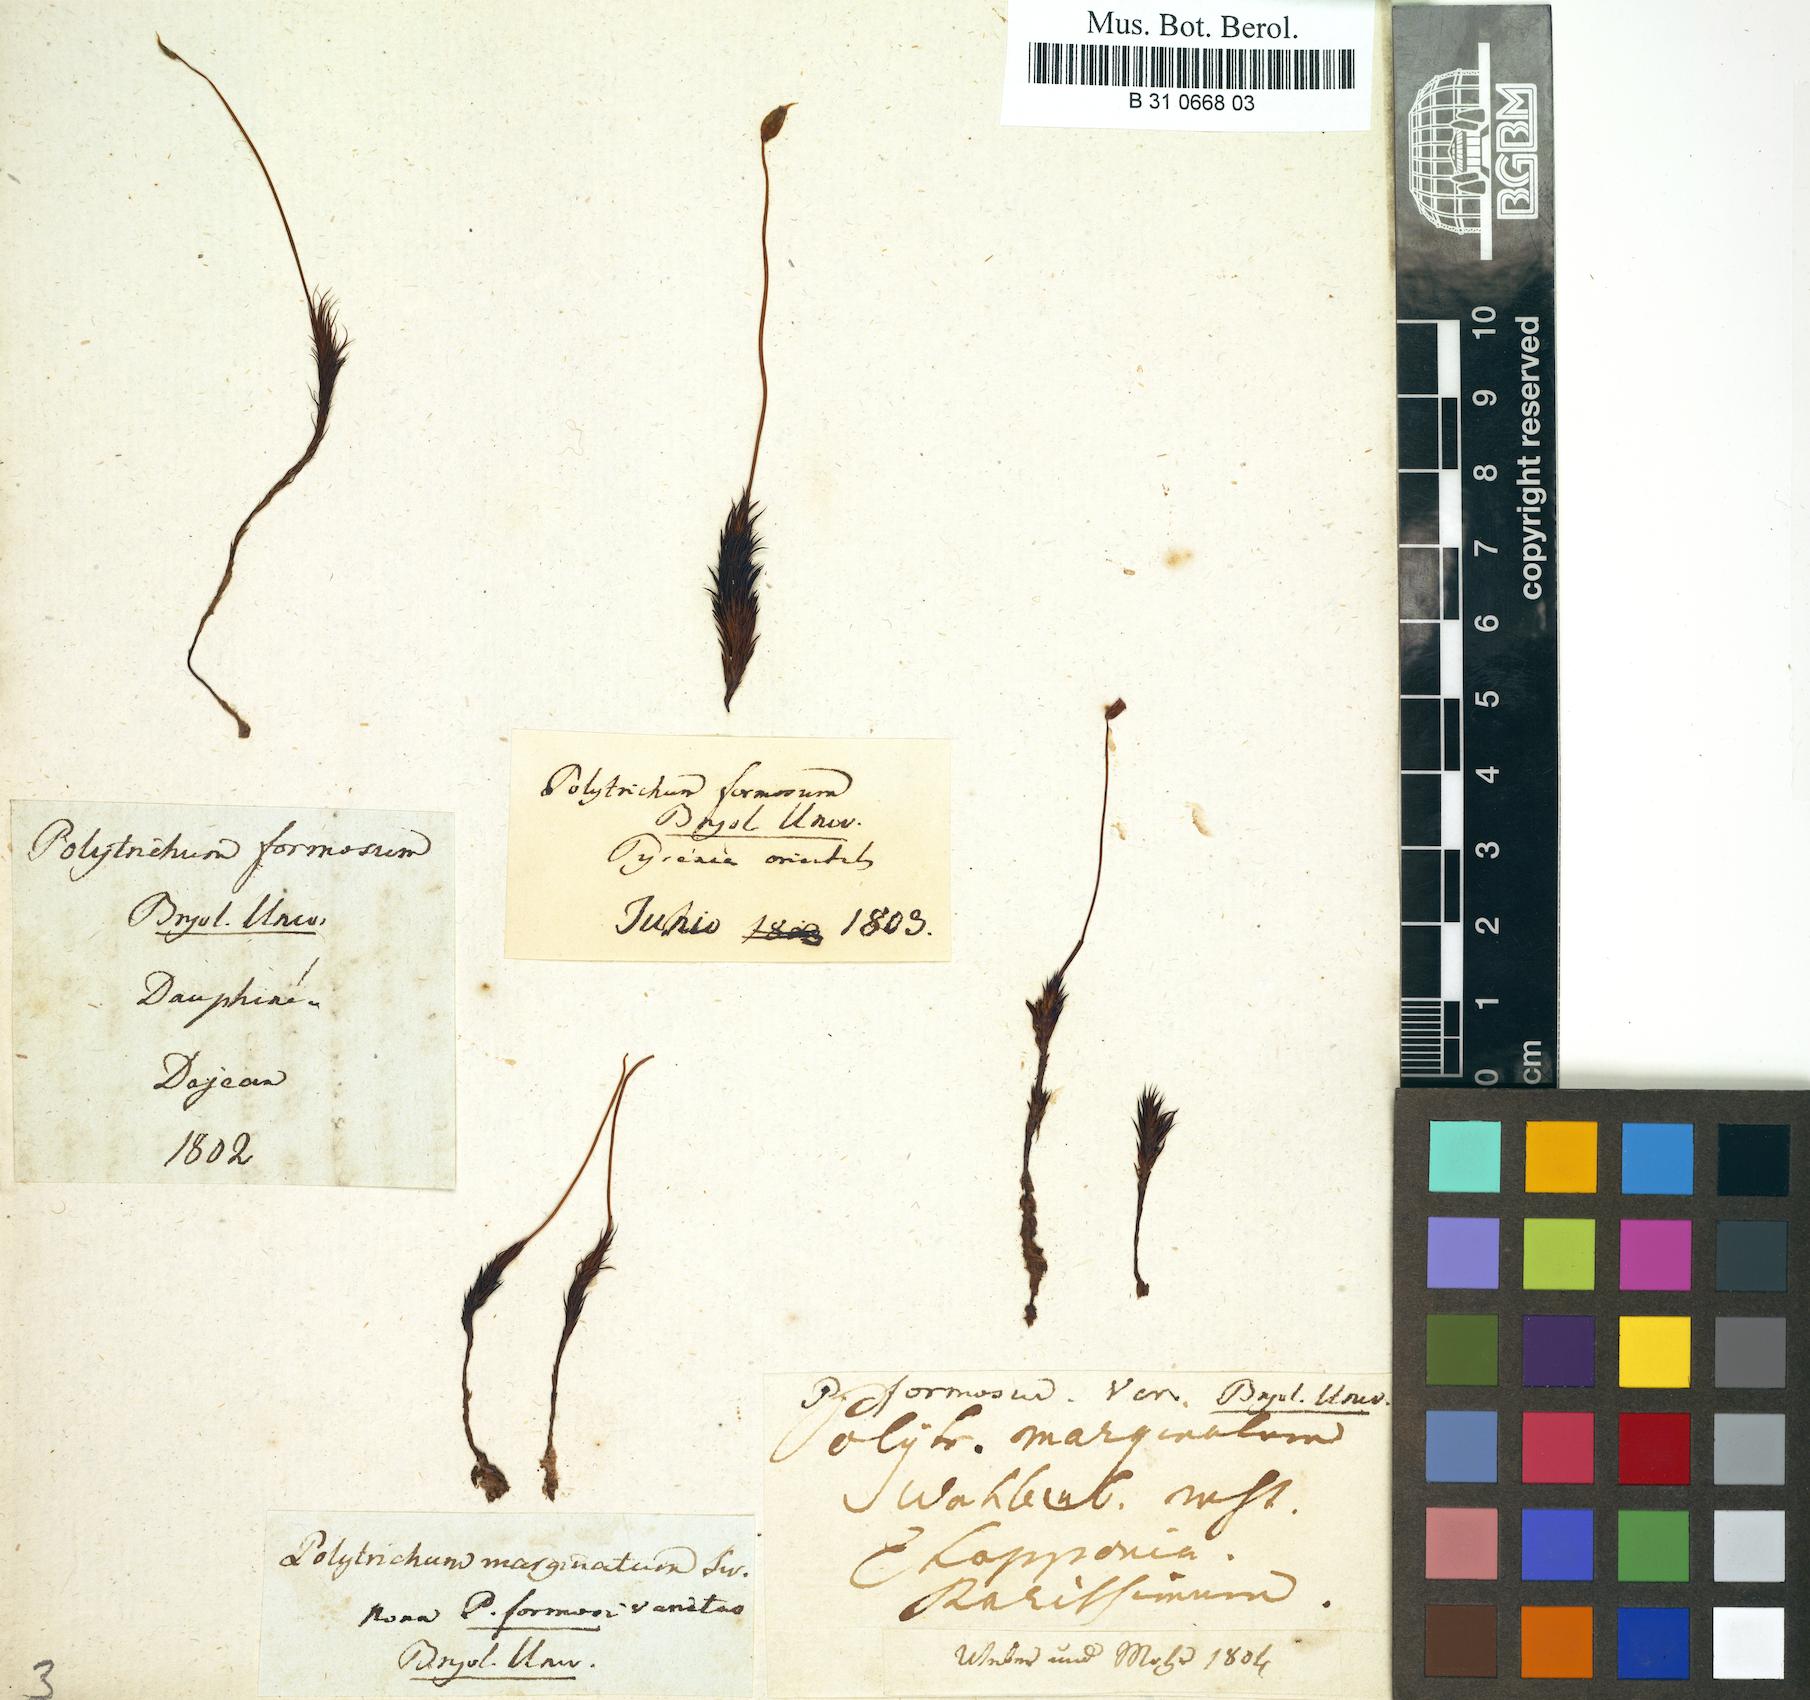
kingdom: Plantae
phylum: Bryophyta
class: Polytrichopsida
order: Polytrichales
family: Polytrichaceae
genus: Polytrichum
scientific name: Polytrichum formosum
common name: Bank haircap moss
